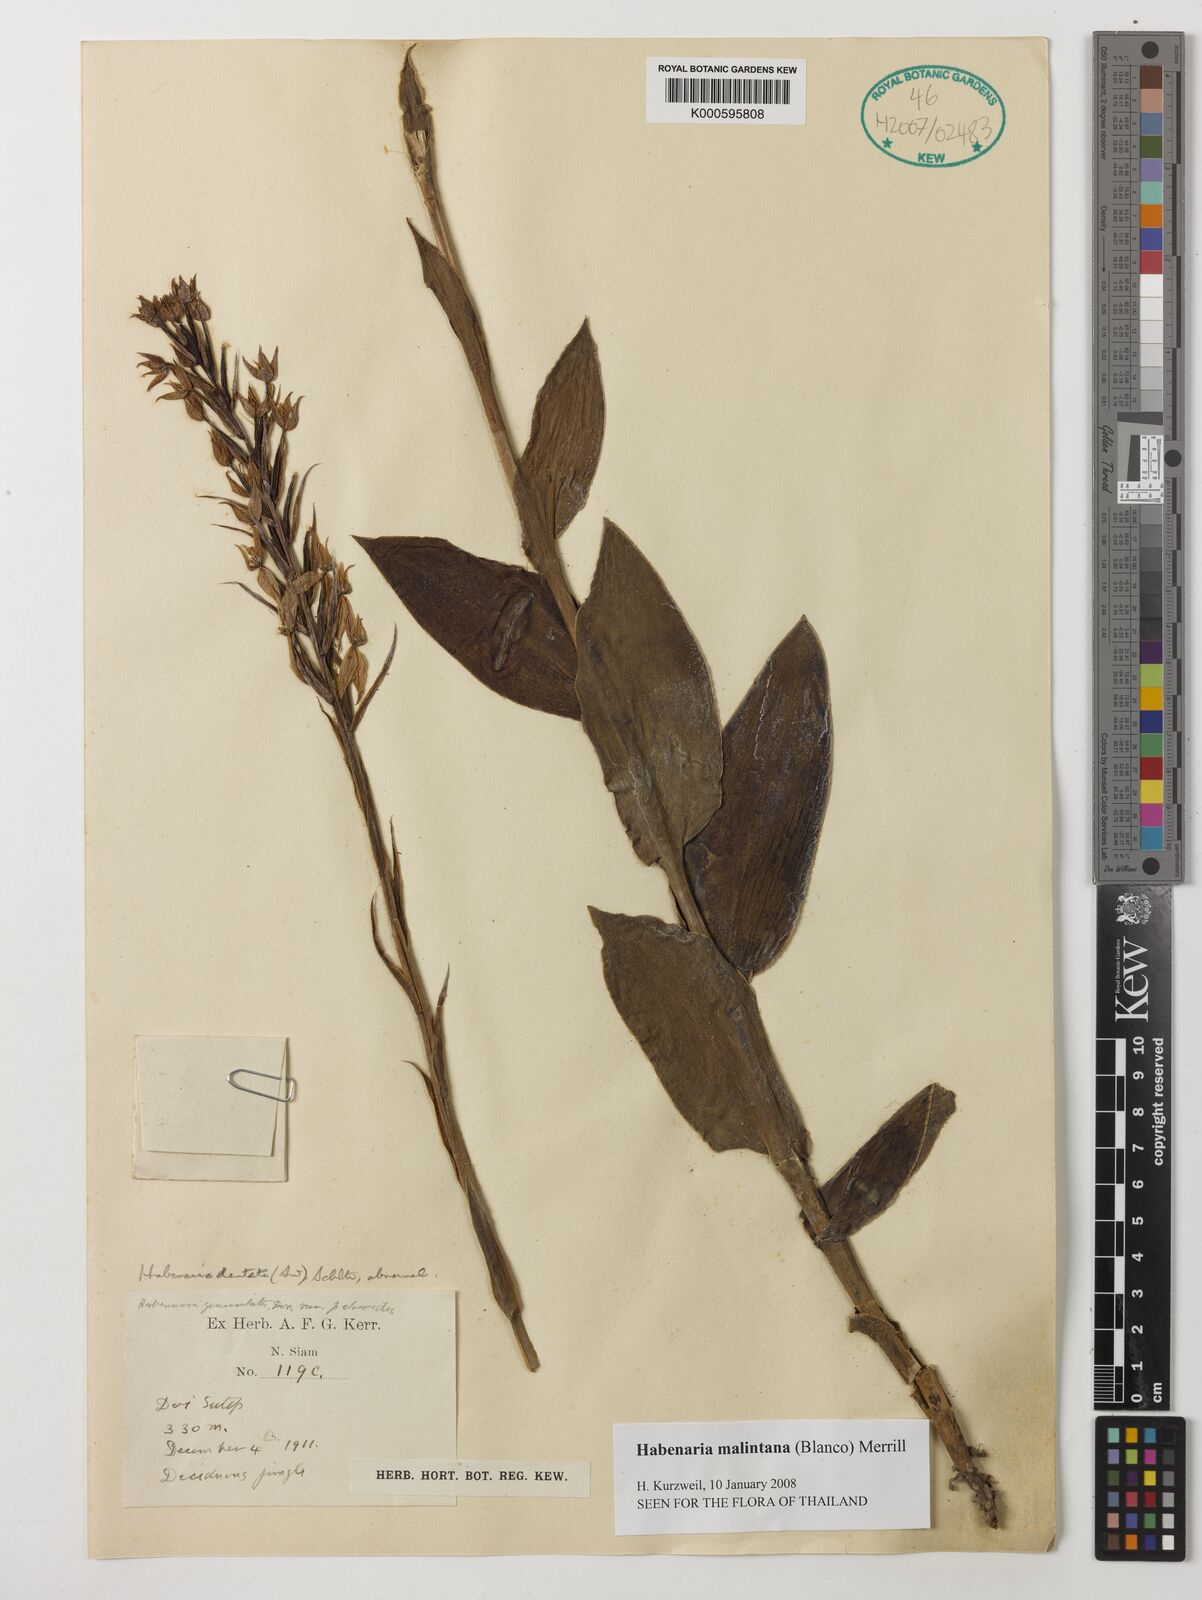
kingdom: Plantae
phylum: Tracheophyta
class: Liliopsida
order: Asparagales
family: Orchidaceae
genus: Habenaria
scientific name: Habenaria malintana
